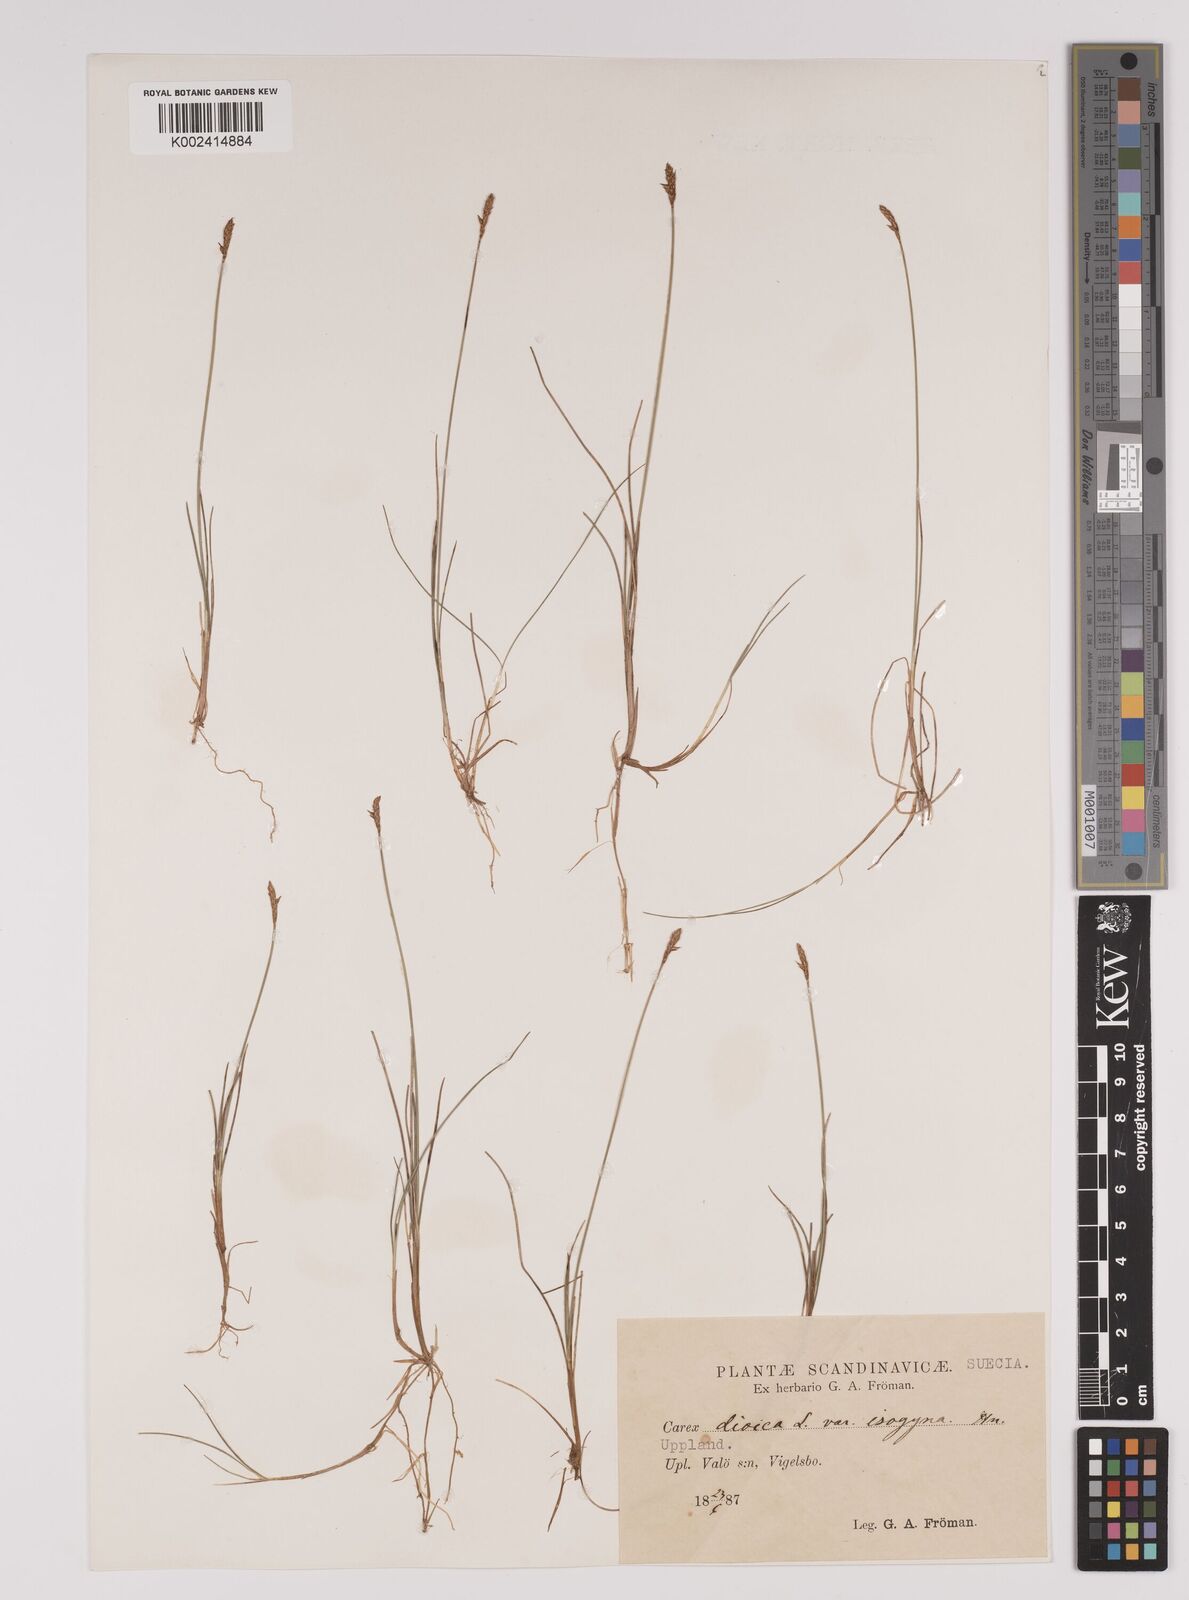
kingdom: Plantae
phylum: Tracheophyta
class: Liliopsida
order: Poales
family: Cyperaceae
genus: Carex
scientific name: Carex dioica
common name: Dioecious sedge
